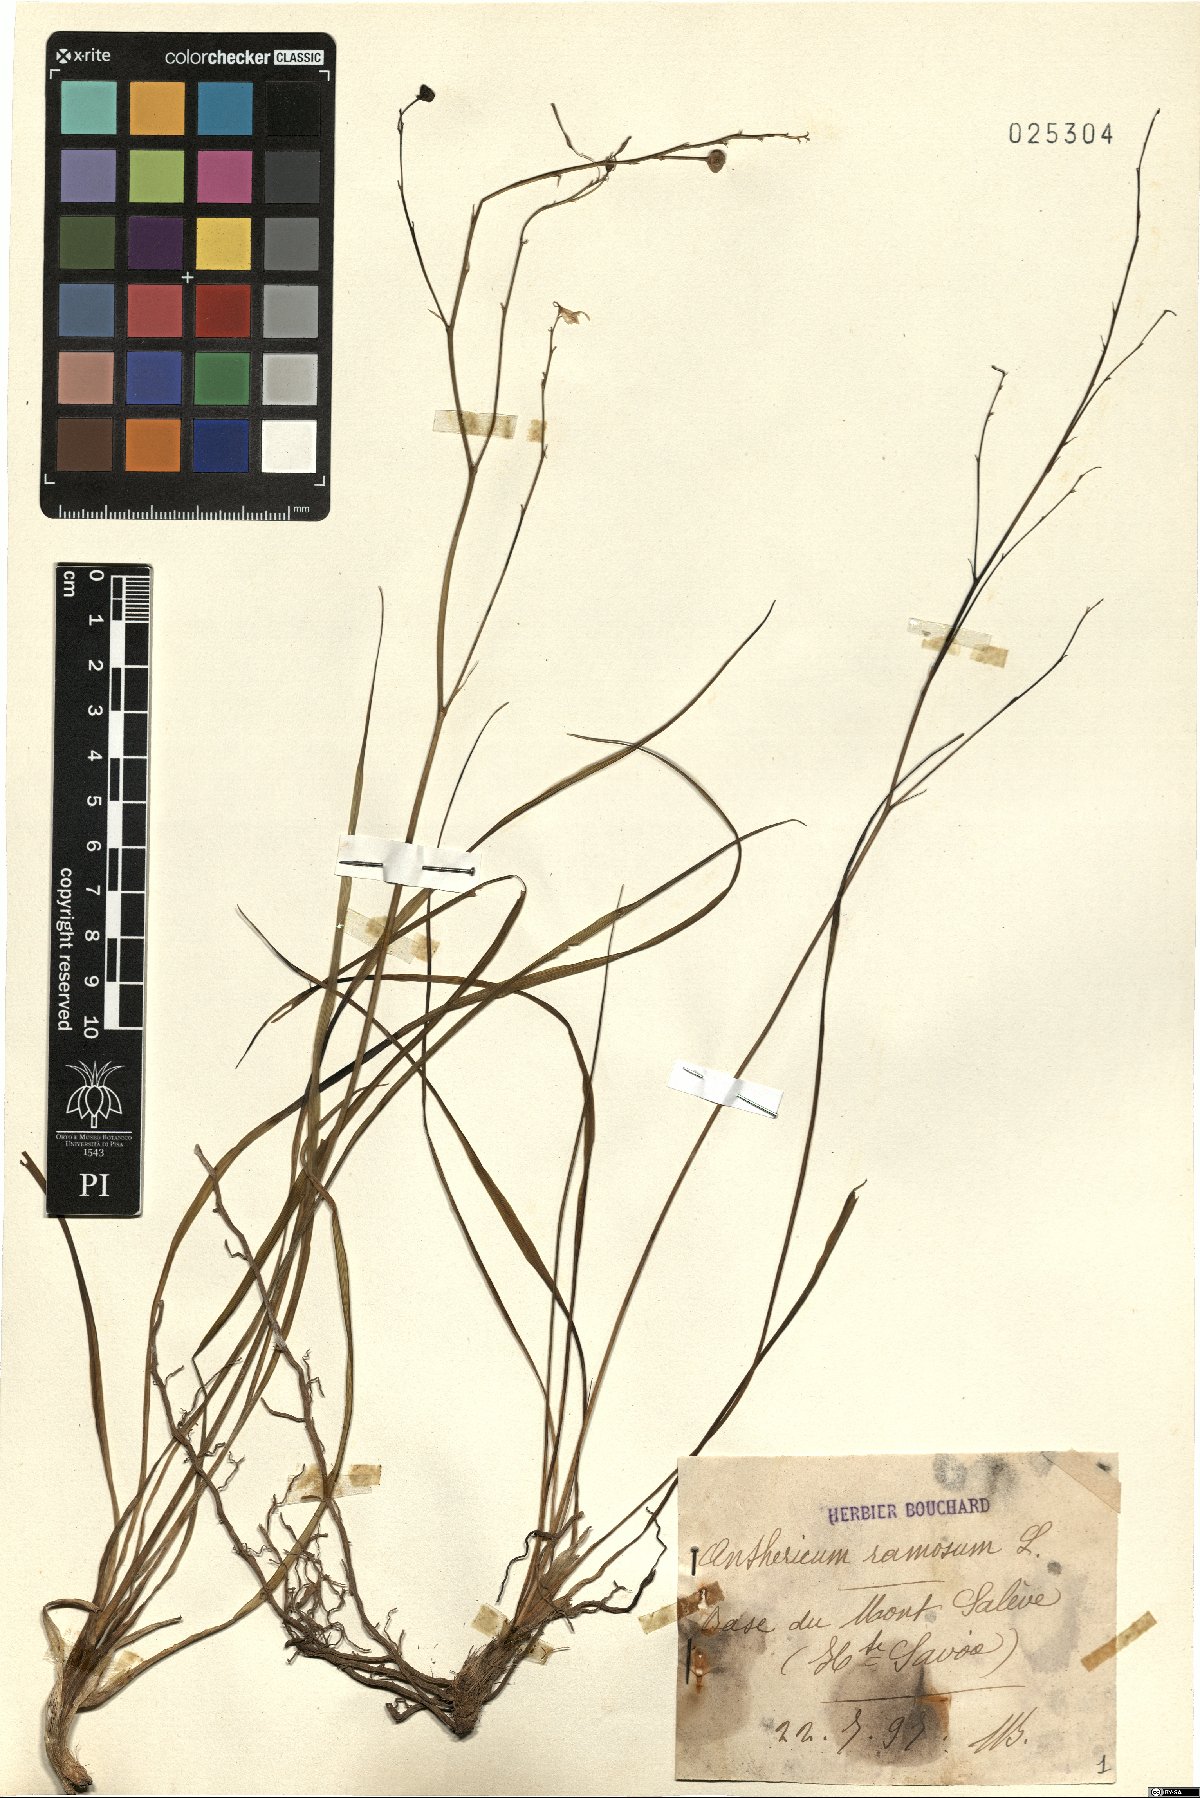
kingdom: Plantae
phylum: Tracheophyta
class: Liliopsida
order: Asparagales
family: Asparagaceae
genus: Anthericum
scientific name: Anthericum ramosum
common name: Branched st. bernard's-lily
